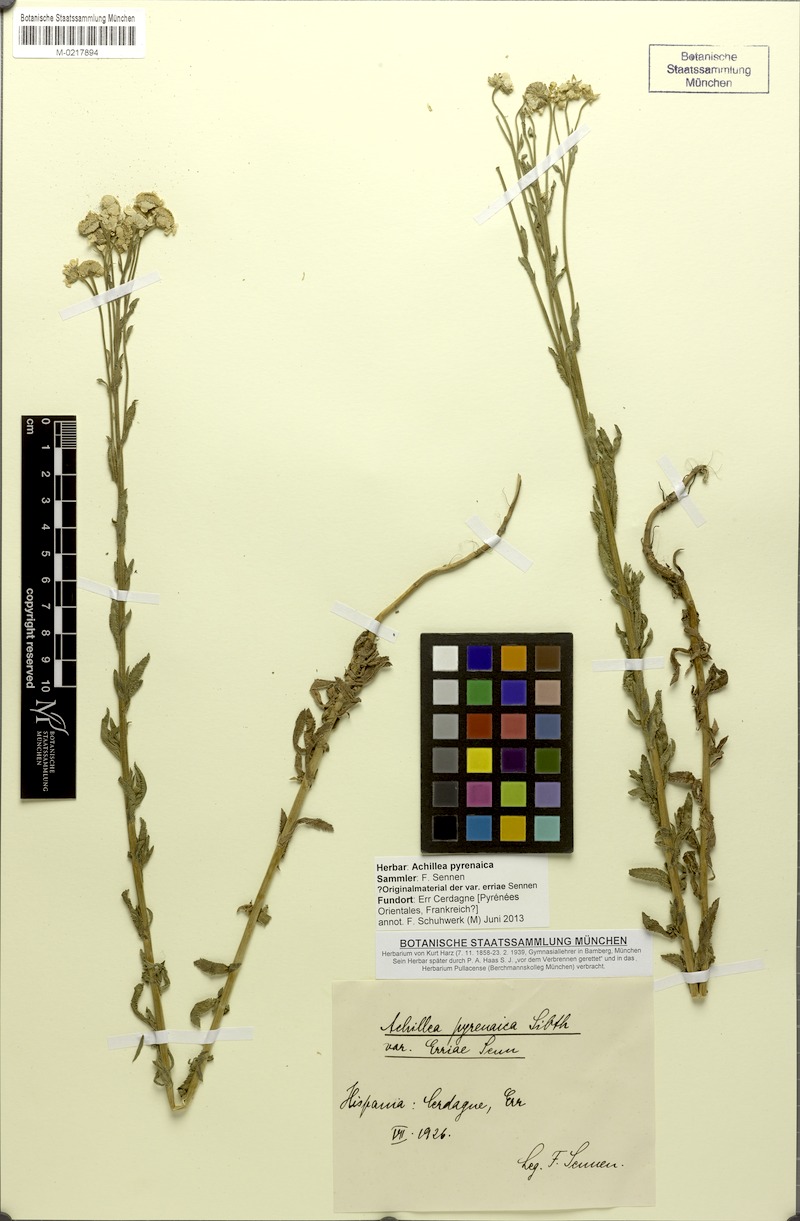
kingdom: Plantae
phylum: Tracheophyta
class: Magnoliopsida
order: Asterales
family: Asteraceae
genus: Achillea
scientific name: Achillea pyrenaica
